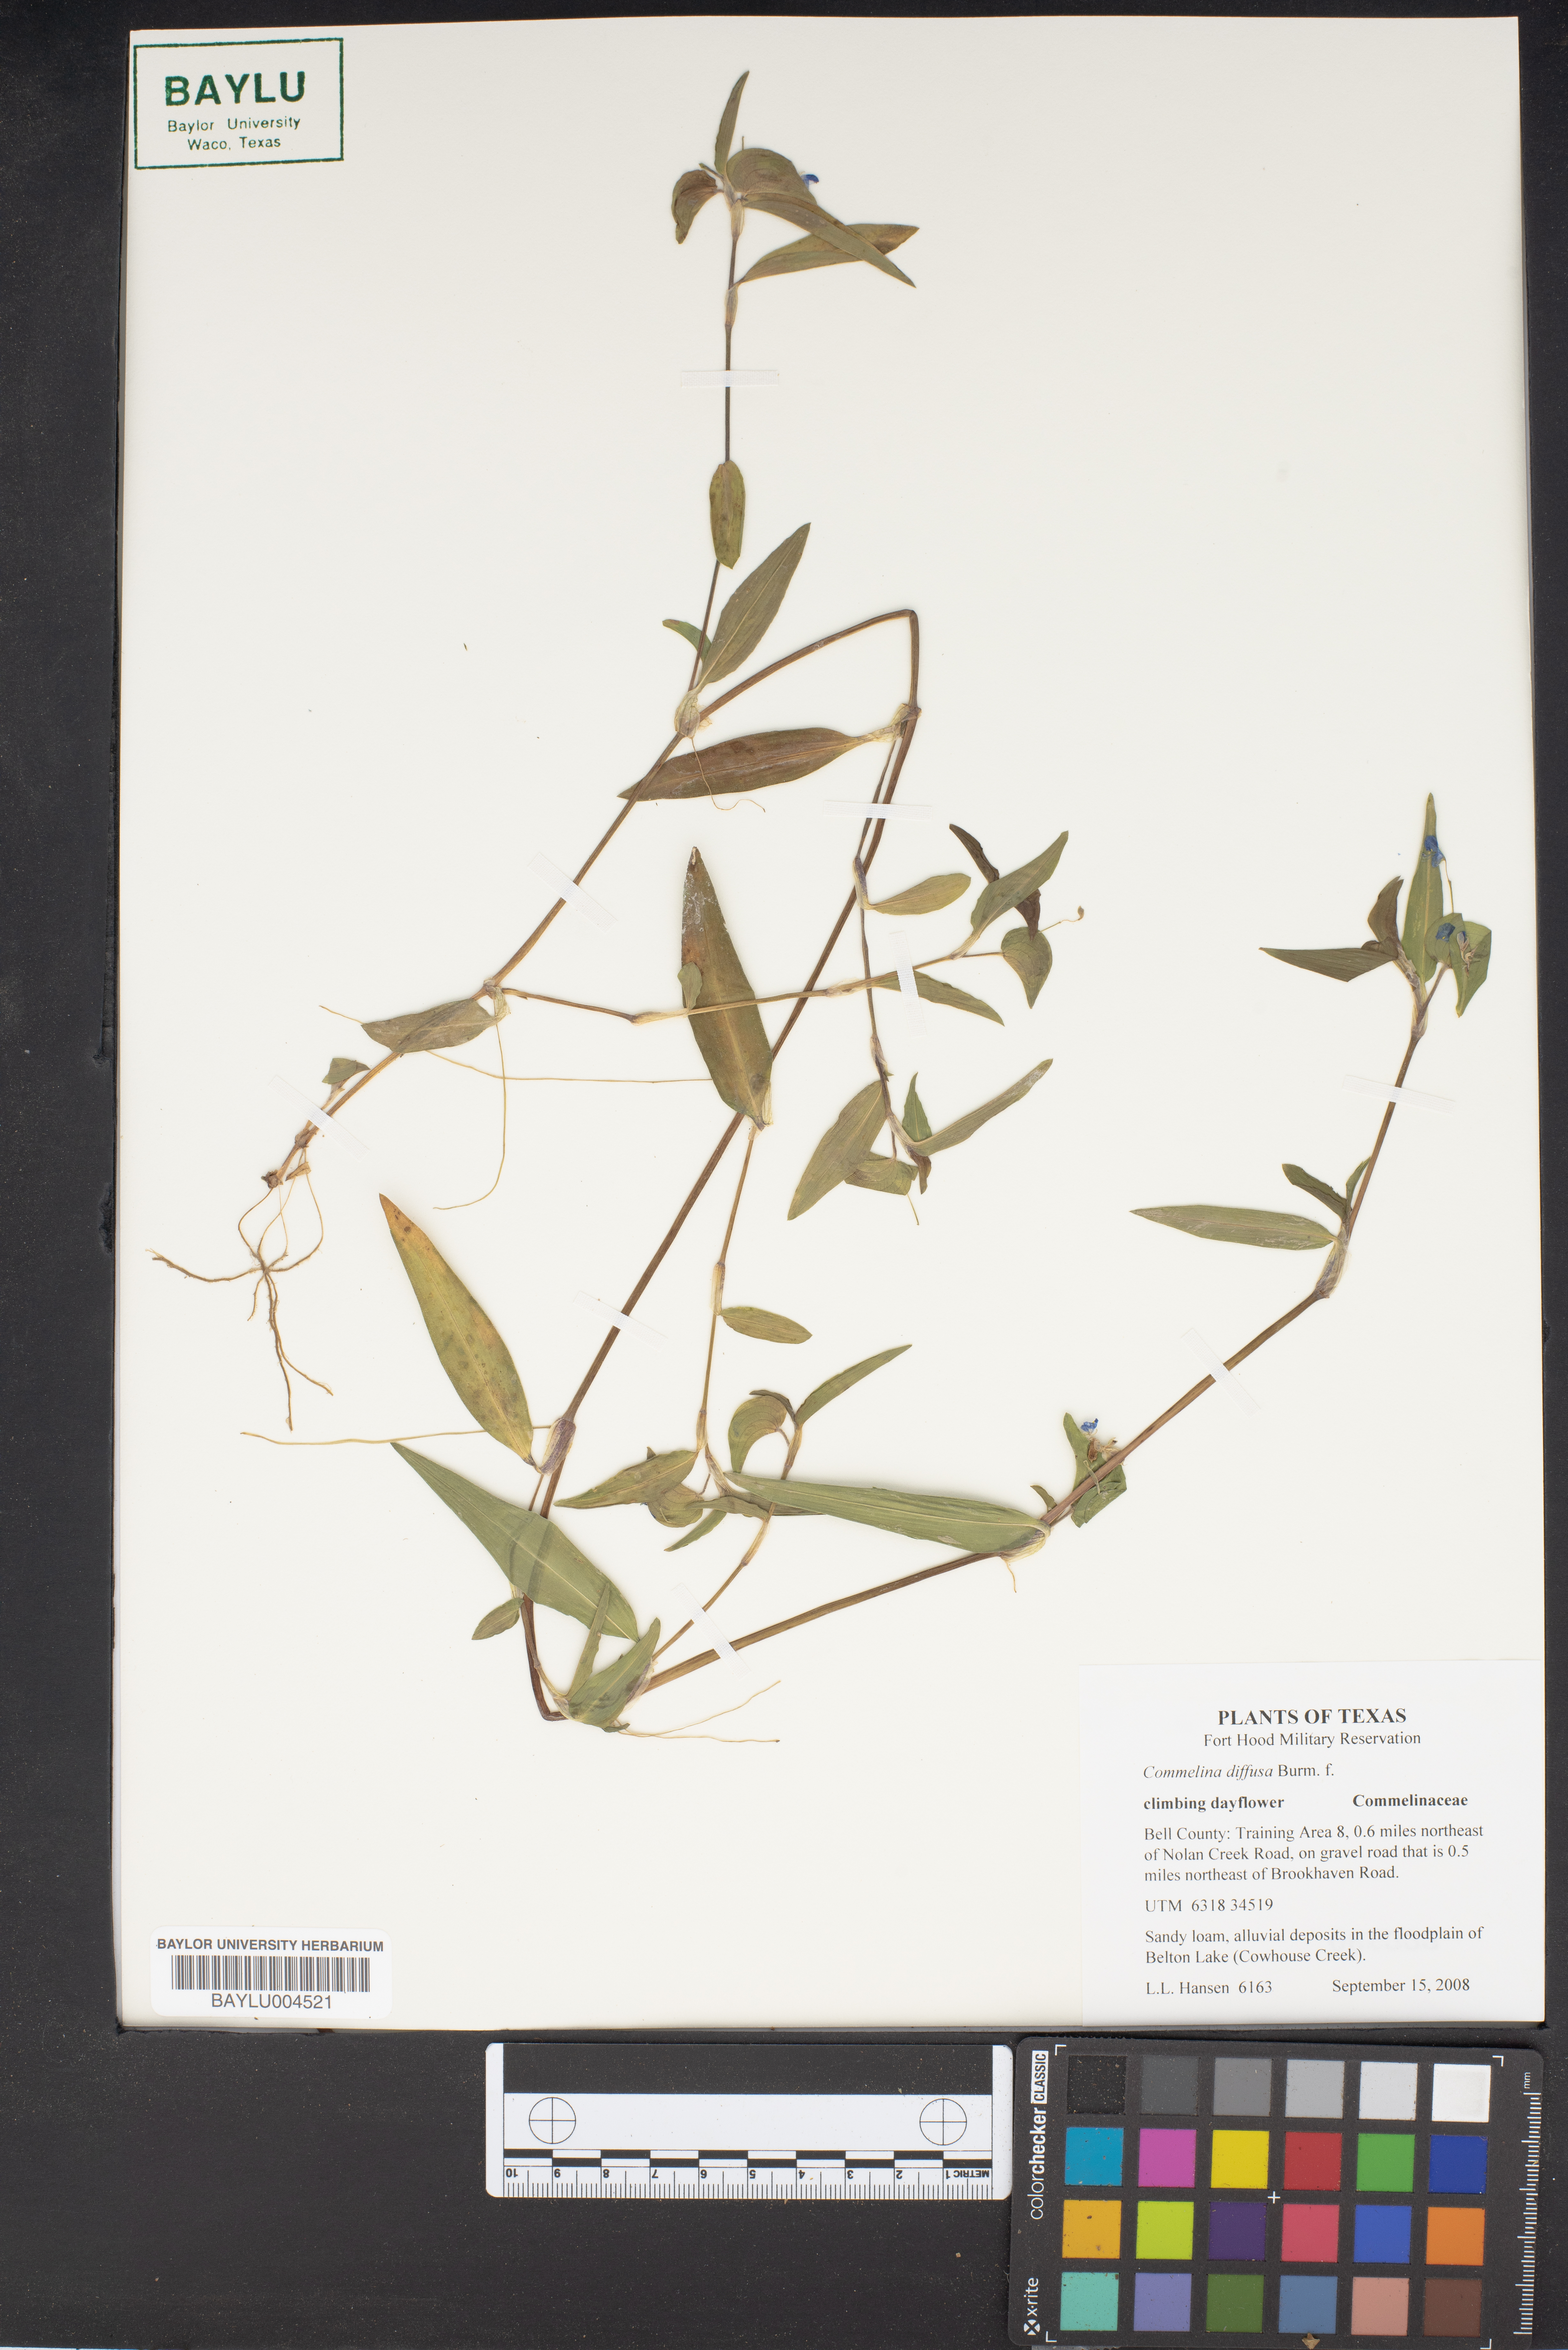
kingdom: Plantae
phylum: Tracheophyta
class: Liliopsida
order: Commelinales
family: Commelinaceae
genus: Commelina
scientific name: Commelina diffusa
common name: Climbing dayflower
